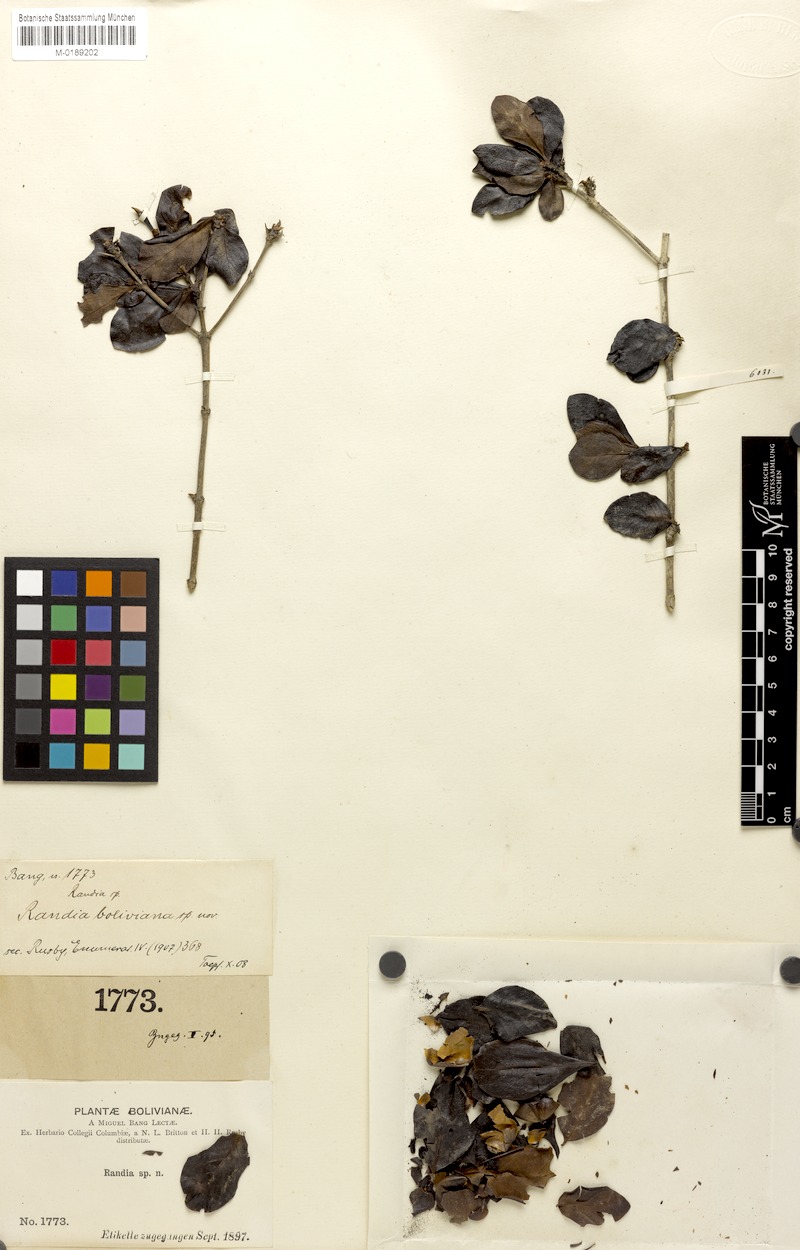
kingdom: Plantae
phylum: Tracheophyta
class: Magnoliopsida
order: Gentianales
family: Rubiaceae
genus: Randia
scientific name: Randia boliviana
